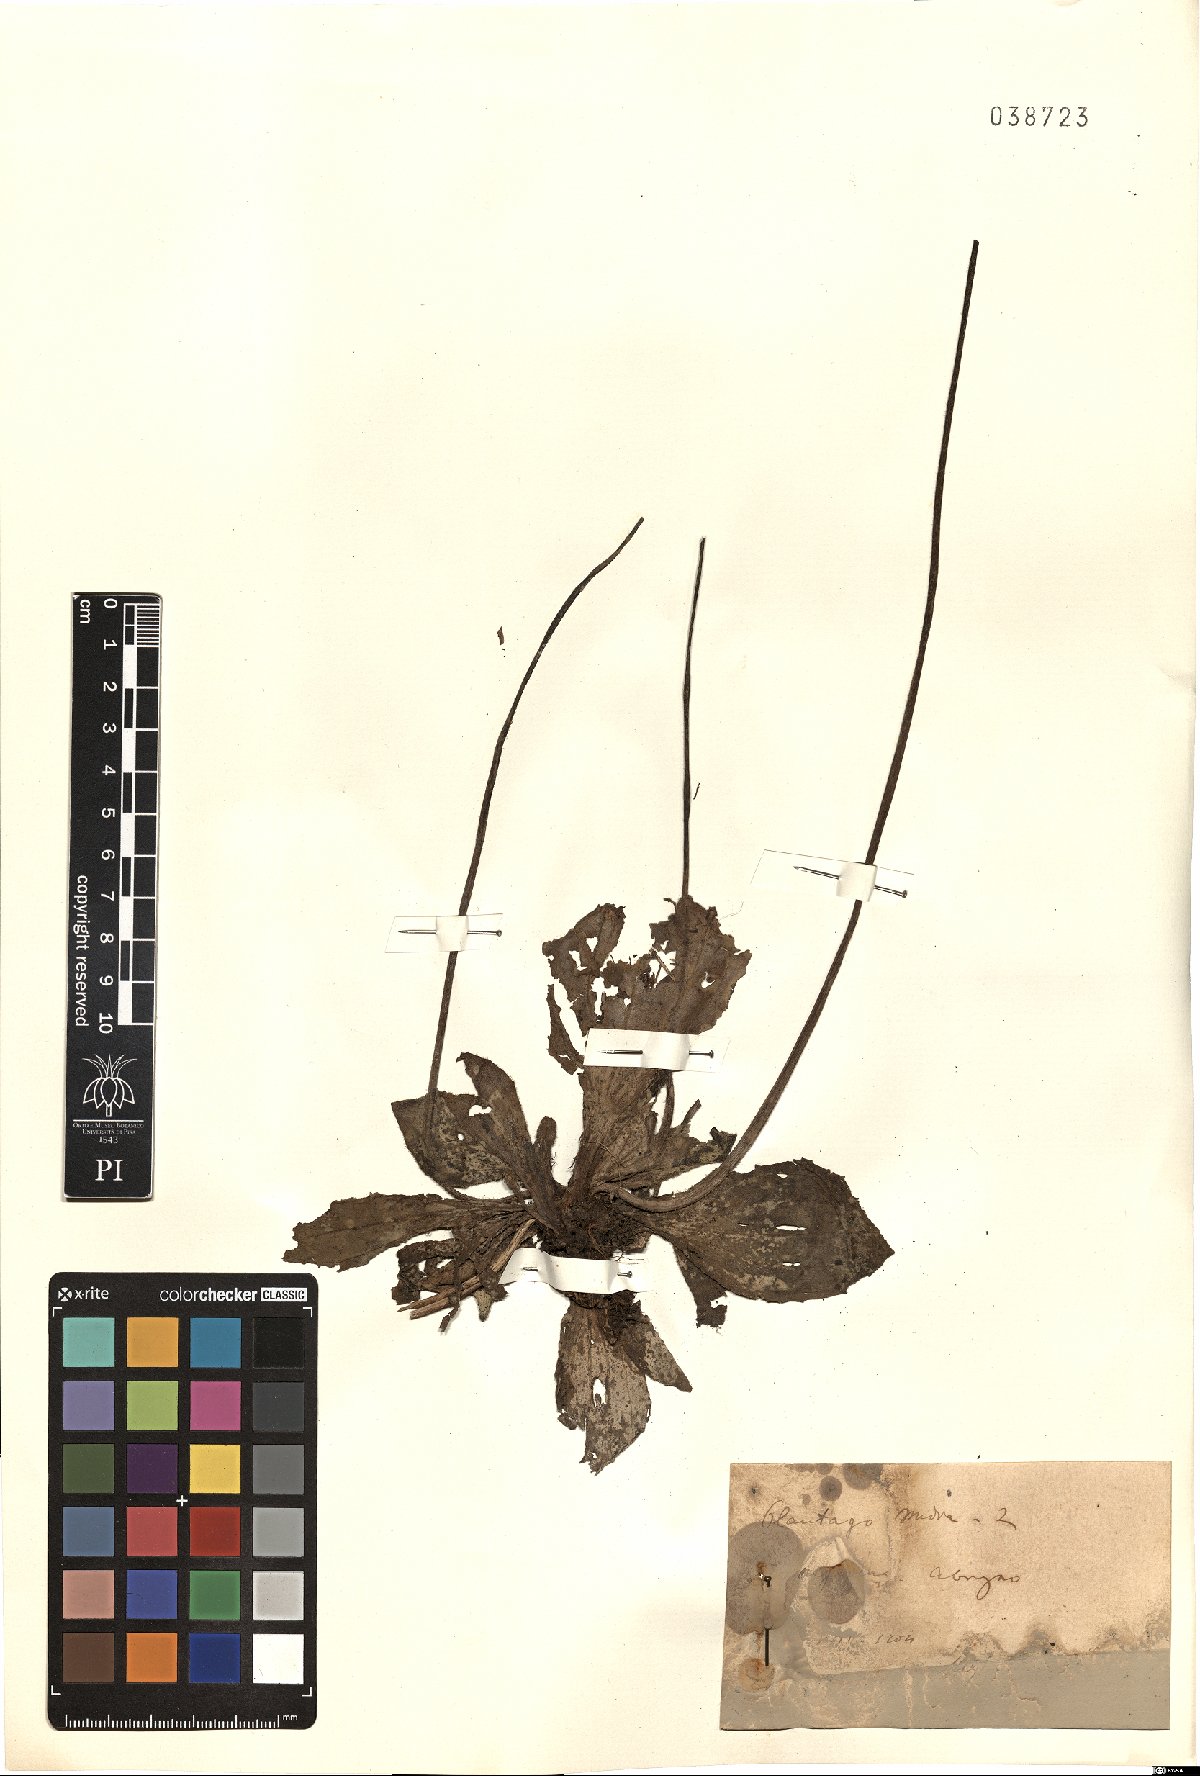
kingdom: Plantae
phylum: Tracheophyta
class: Magnoliopsida
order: Lamiales
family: Plantaginaceae
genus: Plantago
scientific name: Plantago media
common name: Hoary plantain
